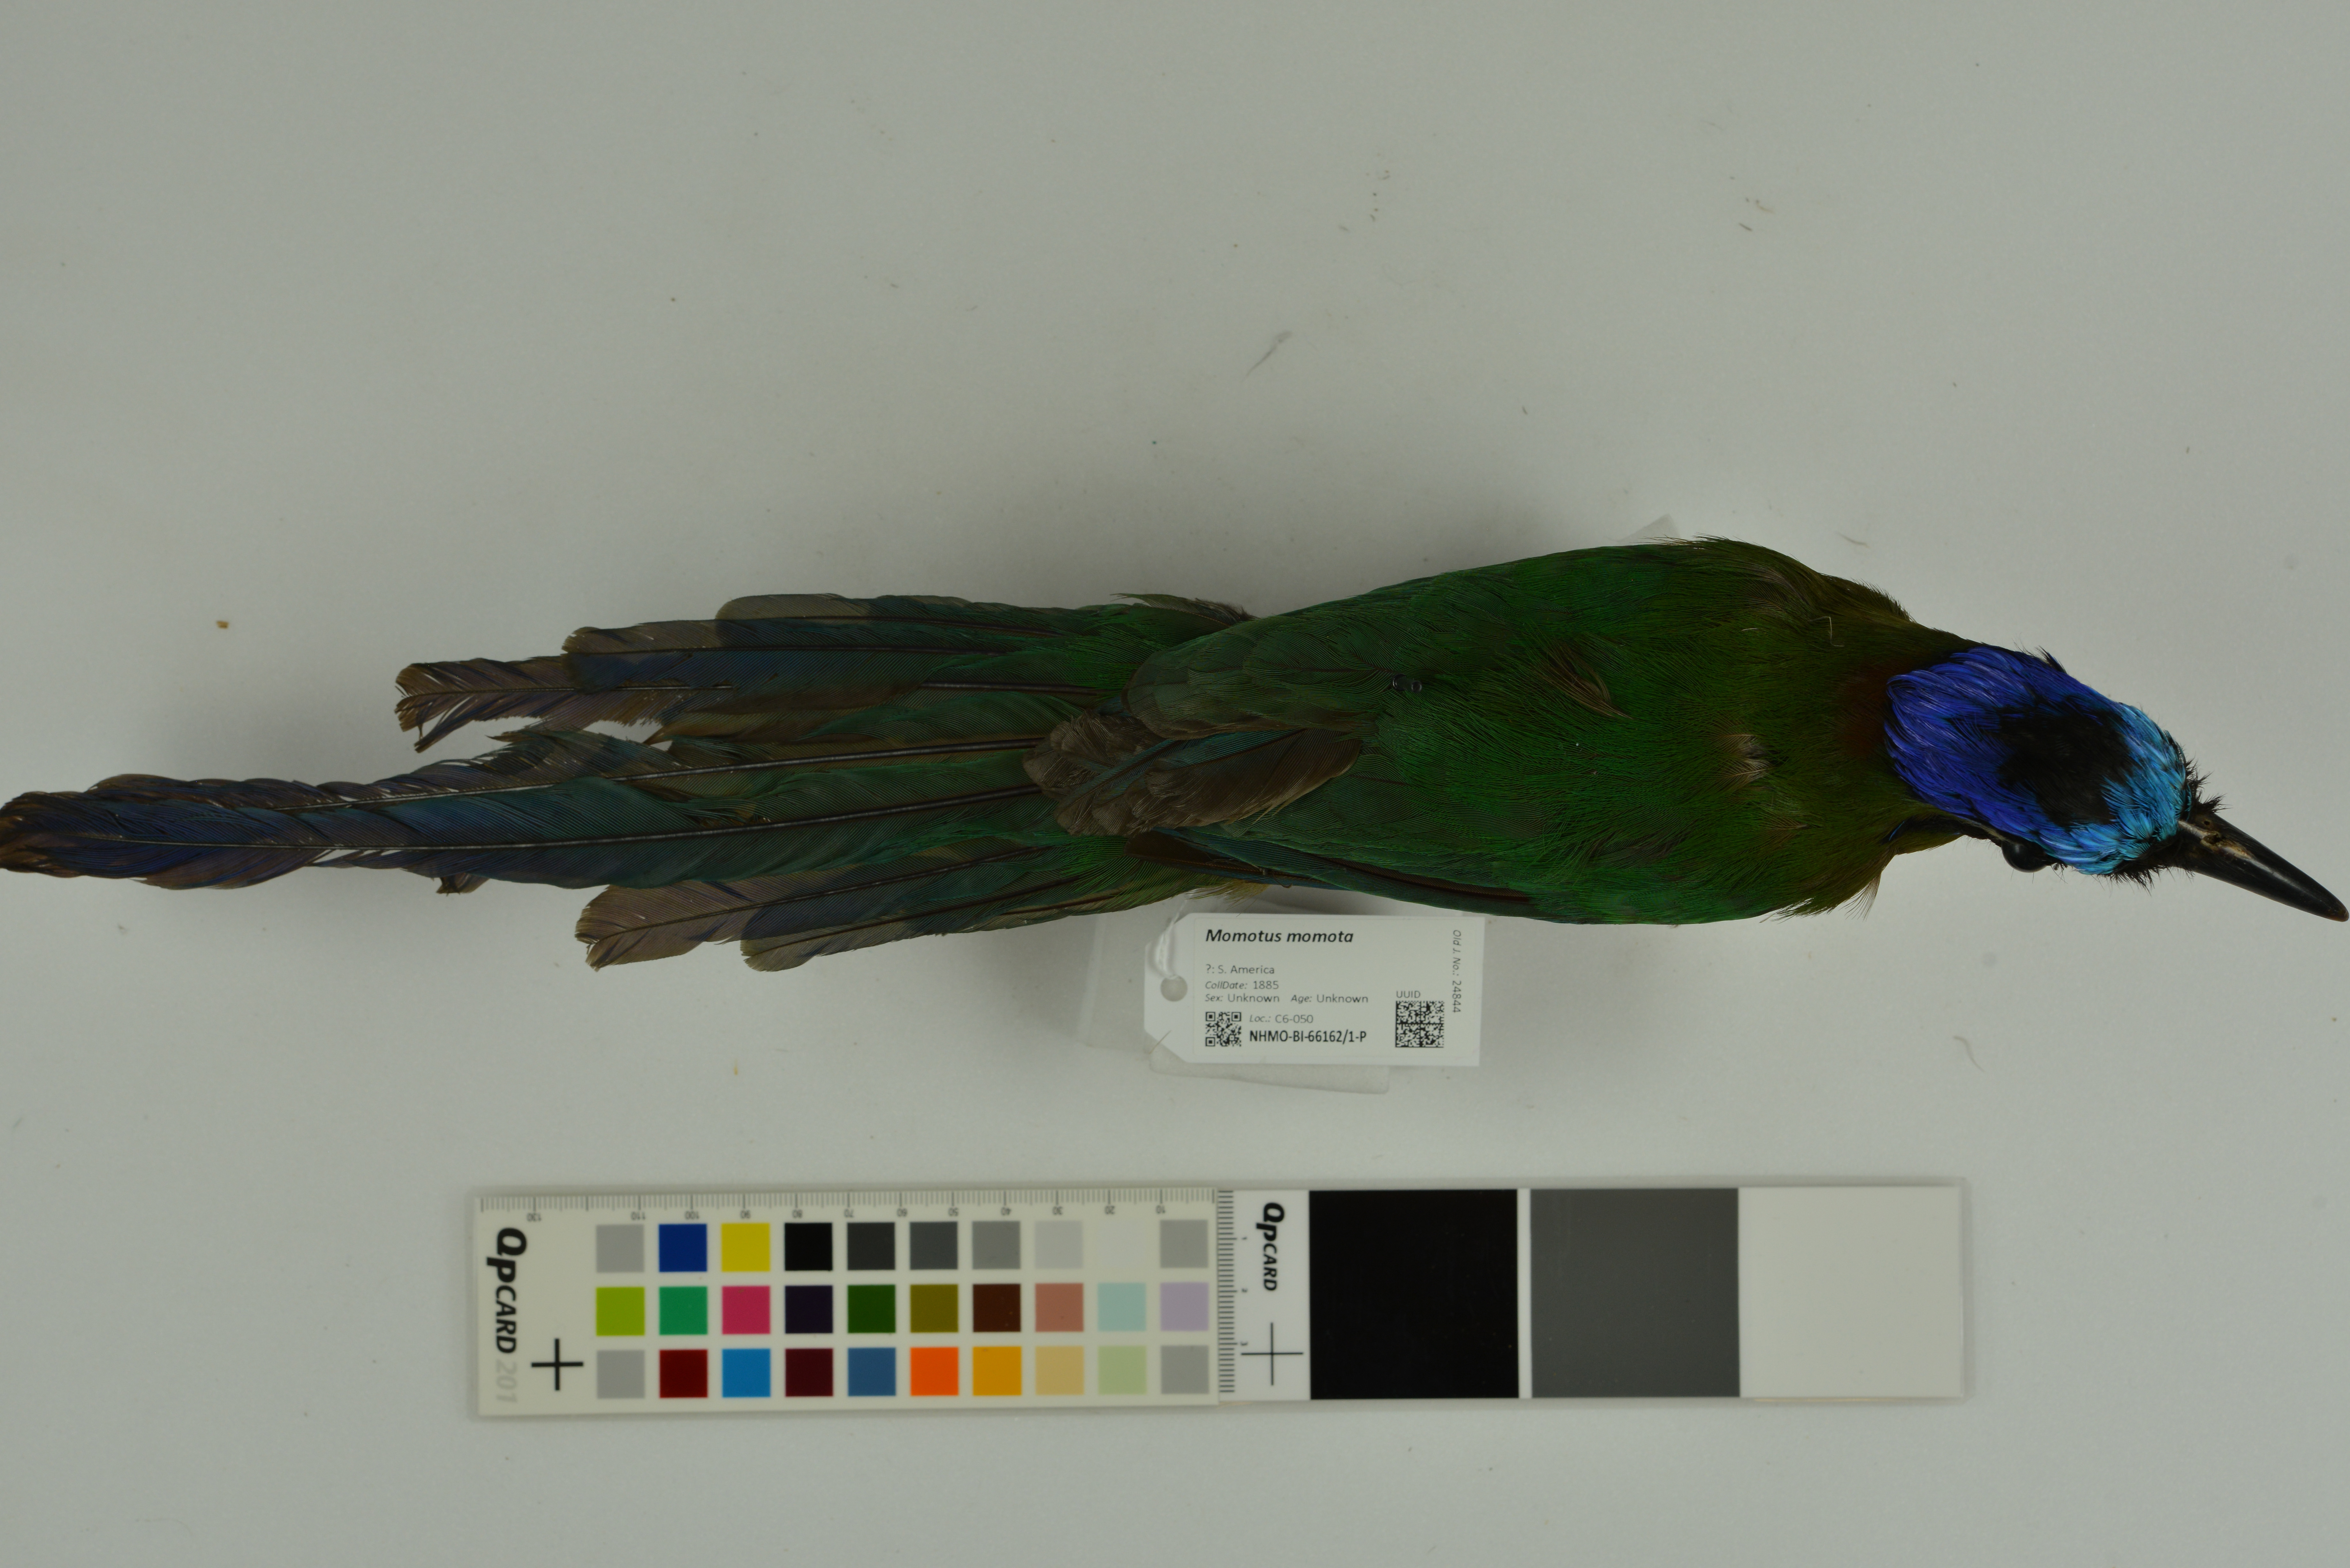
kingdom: Animalia
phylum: Chordata
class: Aves
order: Coraciiformes
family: Momotidae
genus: Momotus
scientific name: Momotus momota
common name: Amazonian motmot
